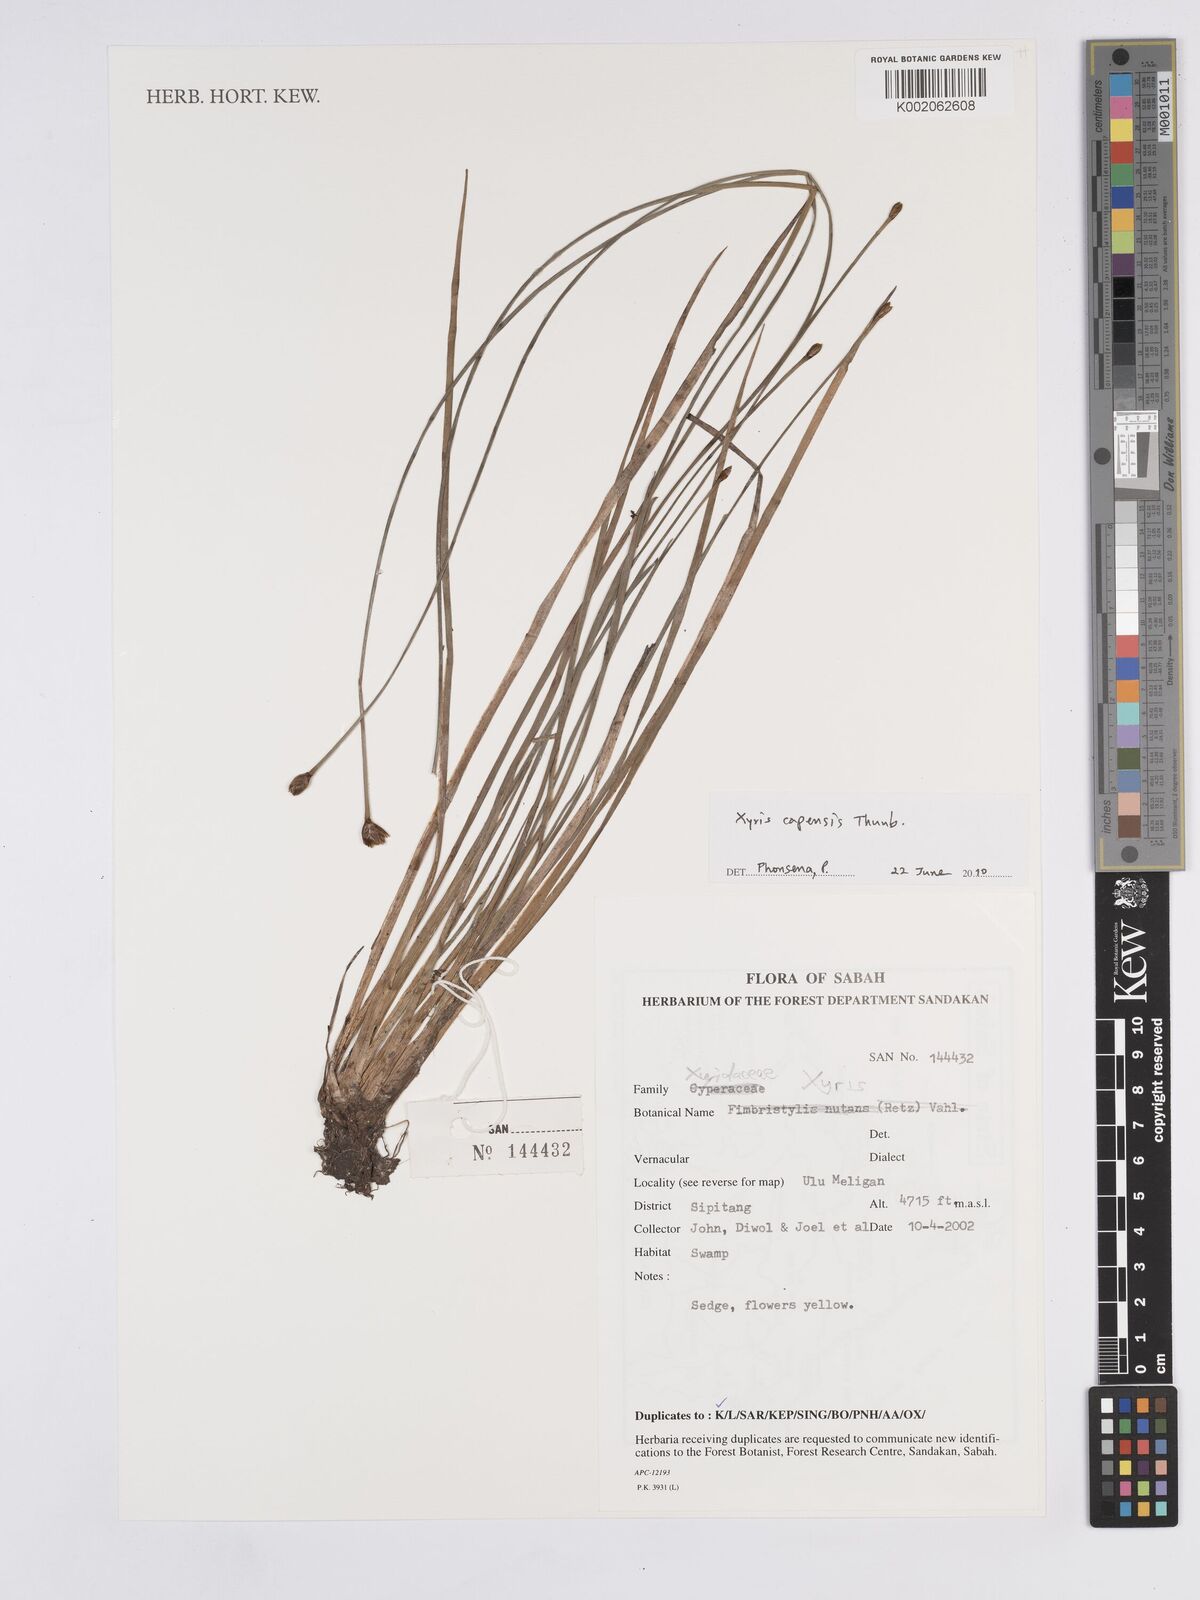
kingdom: Plantae
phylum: Tracheophyta
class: Liliopsida
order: Poales
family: Xyridaceae
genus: Xyris
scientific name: Xyris capensis
